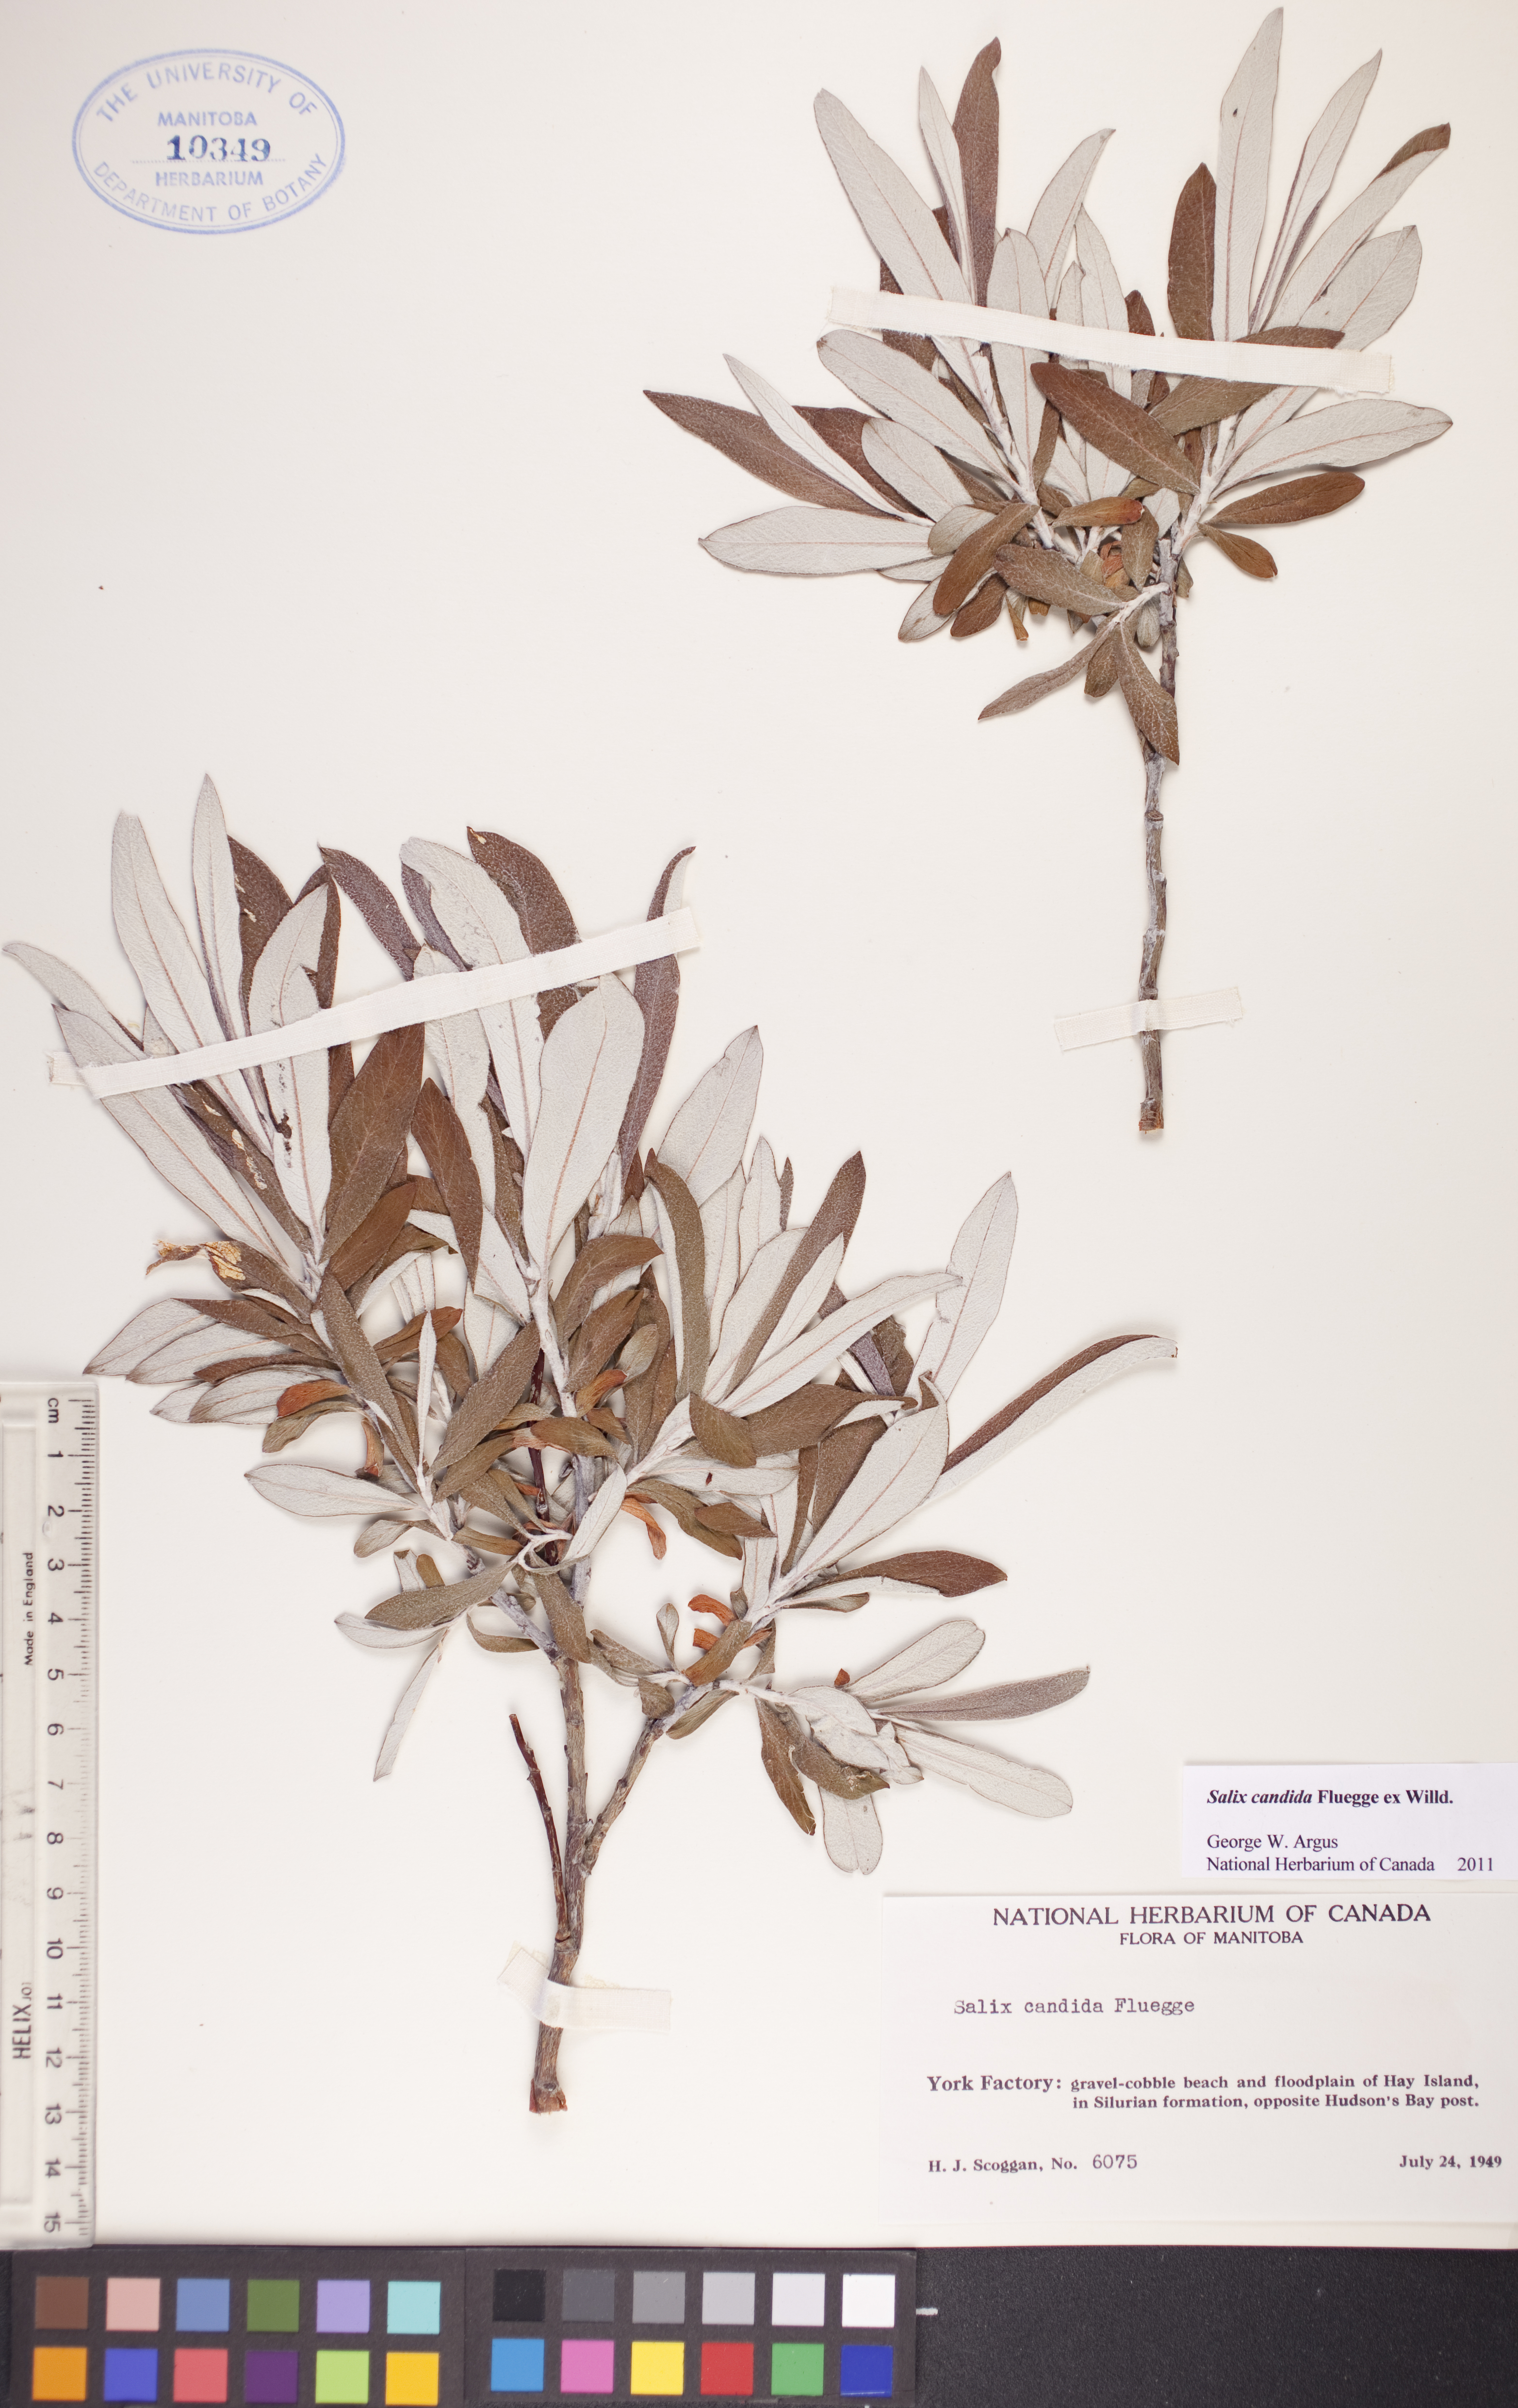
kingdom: Plantae
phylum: Tracheophyta
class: Magnoliopsida
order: Malpighiales
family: Salicaceae
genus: Salix
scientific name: Salix candida
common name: Hoary willow
